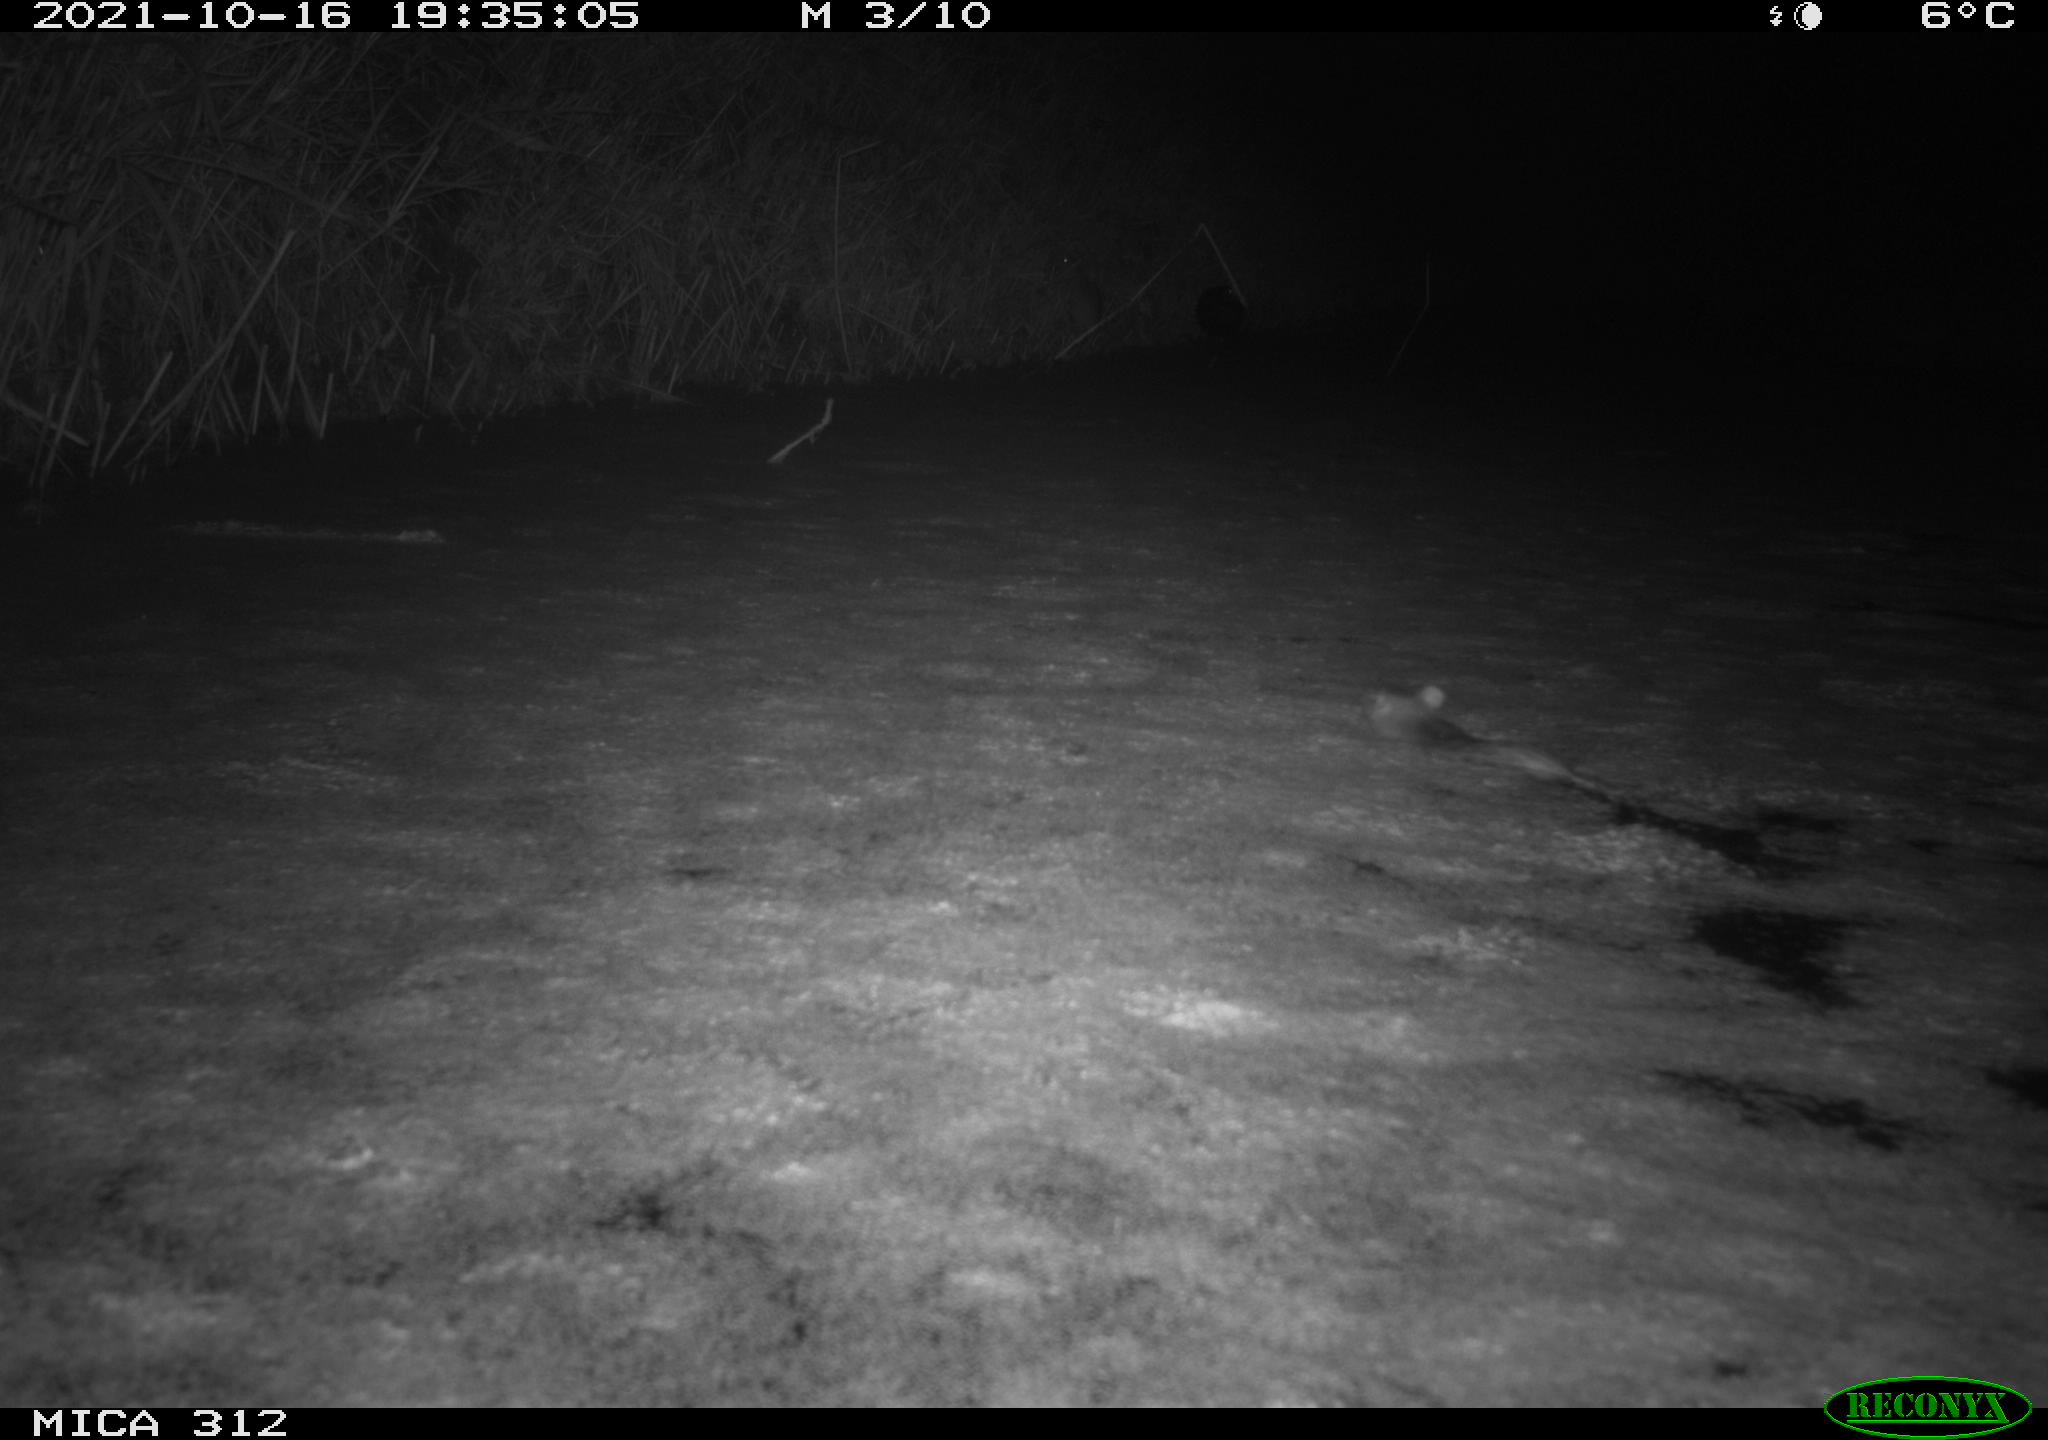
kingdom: Animalia
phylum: Chordata
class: Mammalia
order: Rodentia
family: Muridae
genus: Rattus
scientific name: Rattus norvegicus
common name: Brown rat
